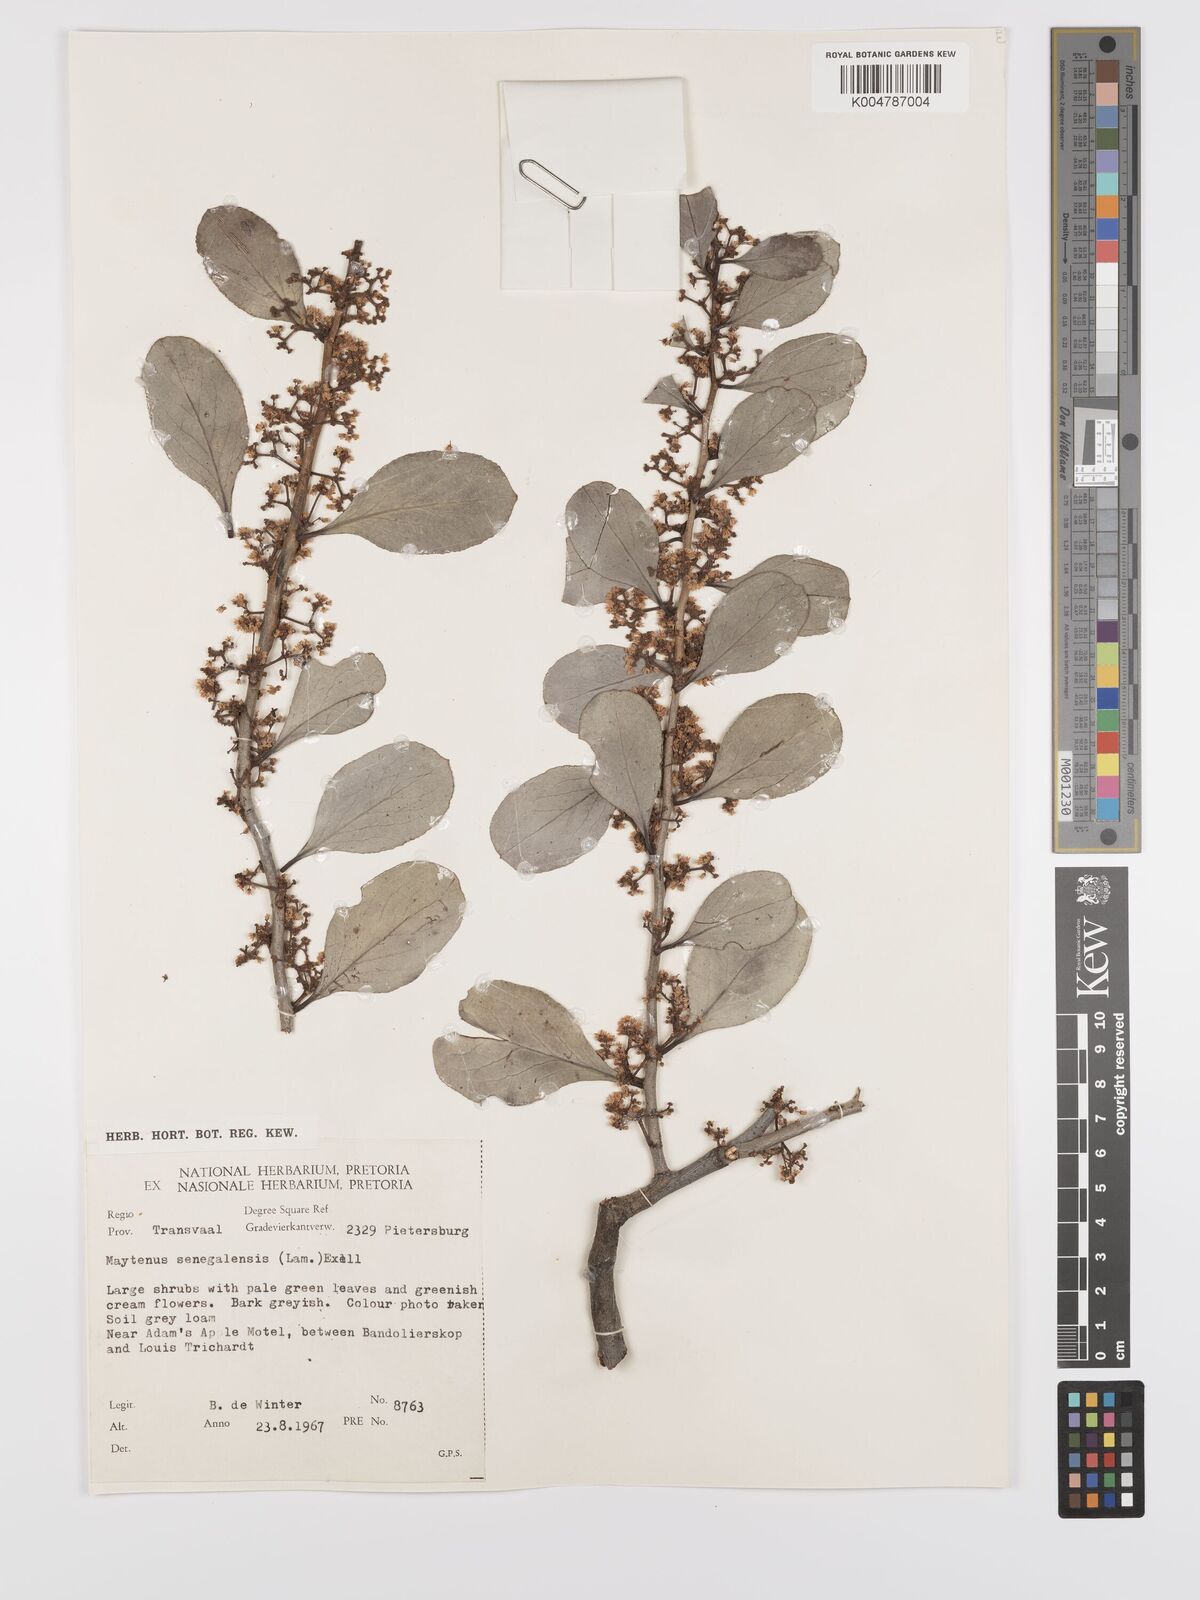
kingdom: Plantae
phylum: Tracheophyta
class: Magnoliopsida
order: Celastrales
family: Celastraceae
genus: Gymnosporia
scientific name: Gymnosporia senegalensis
